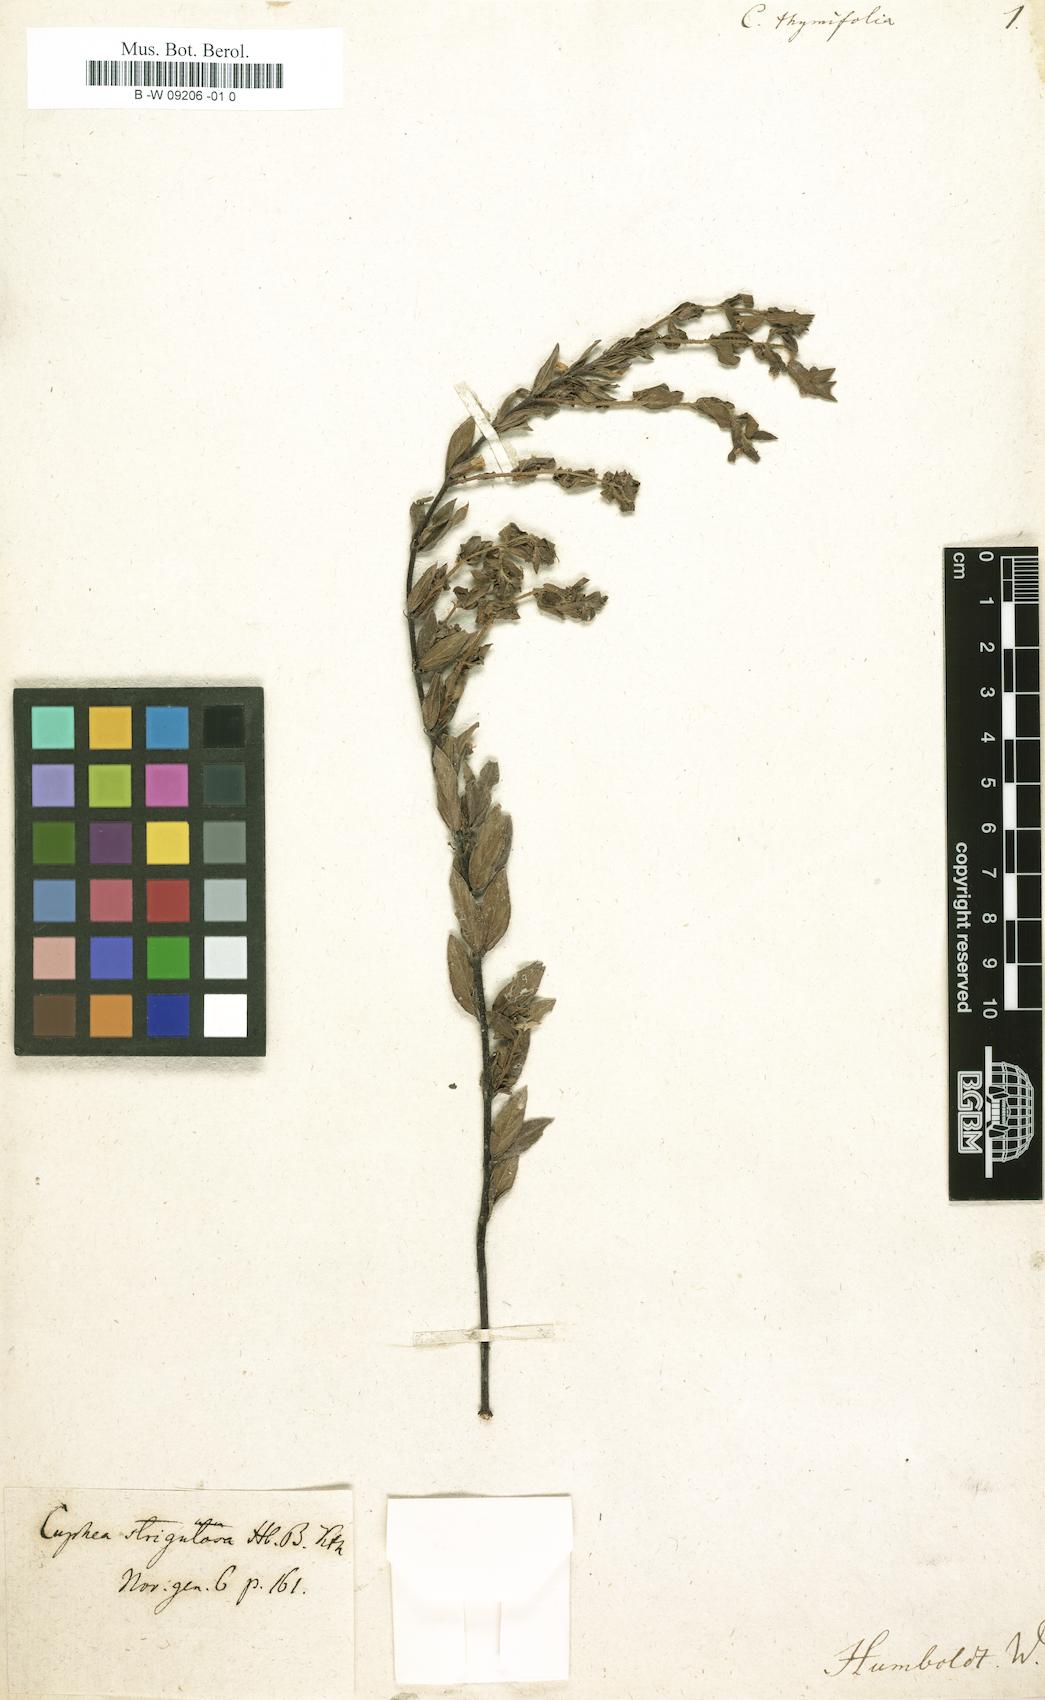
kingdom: Plantae
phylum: Tracheophyta
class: Magnoliopsida
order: Myrtales
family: Lythraceae
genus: Cuphea
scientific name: Cuphea
